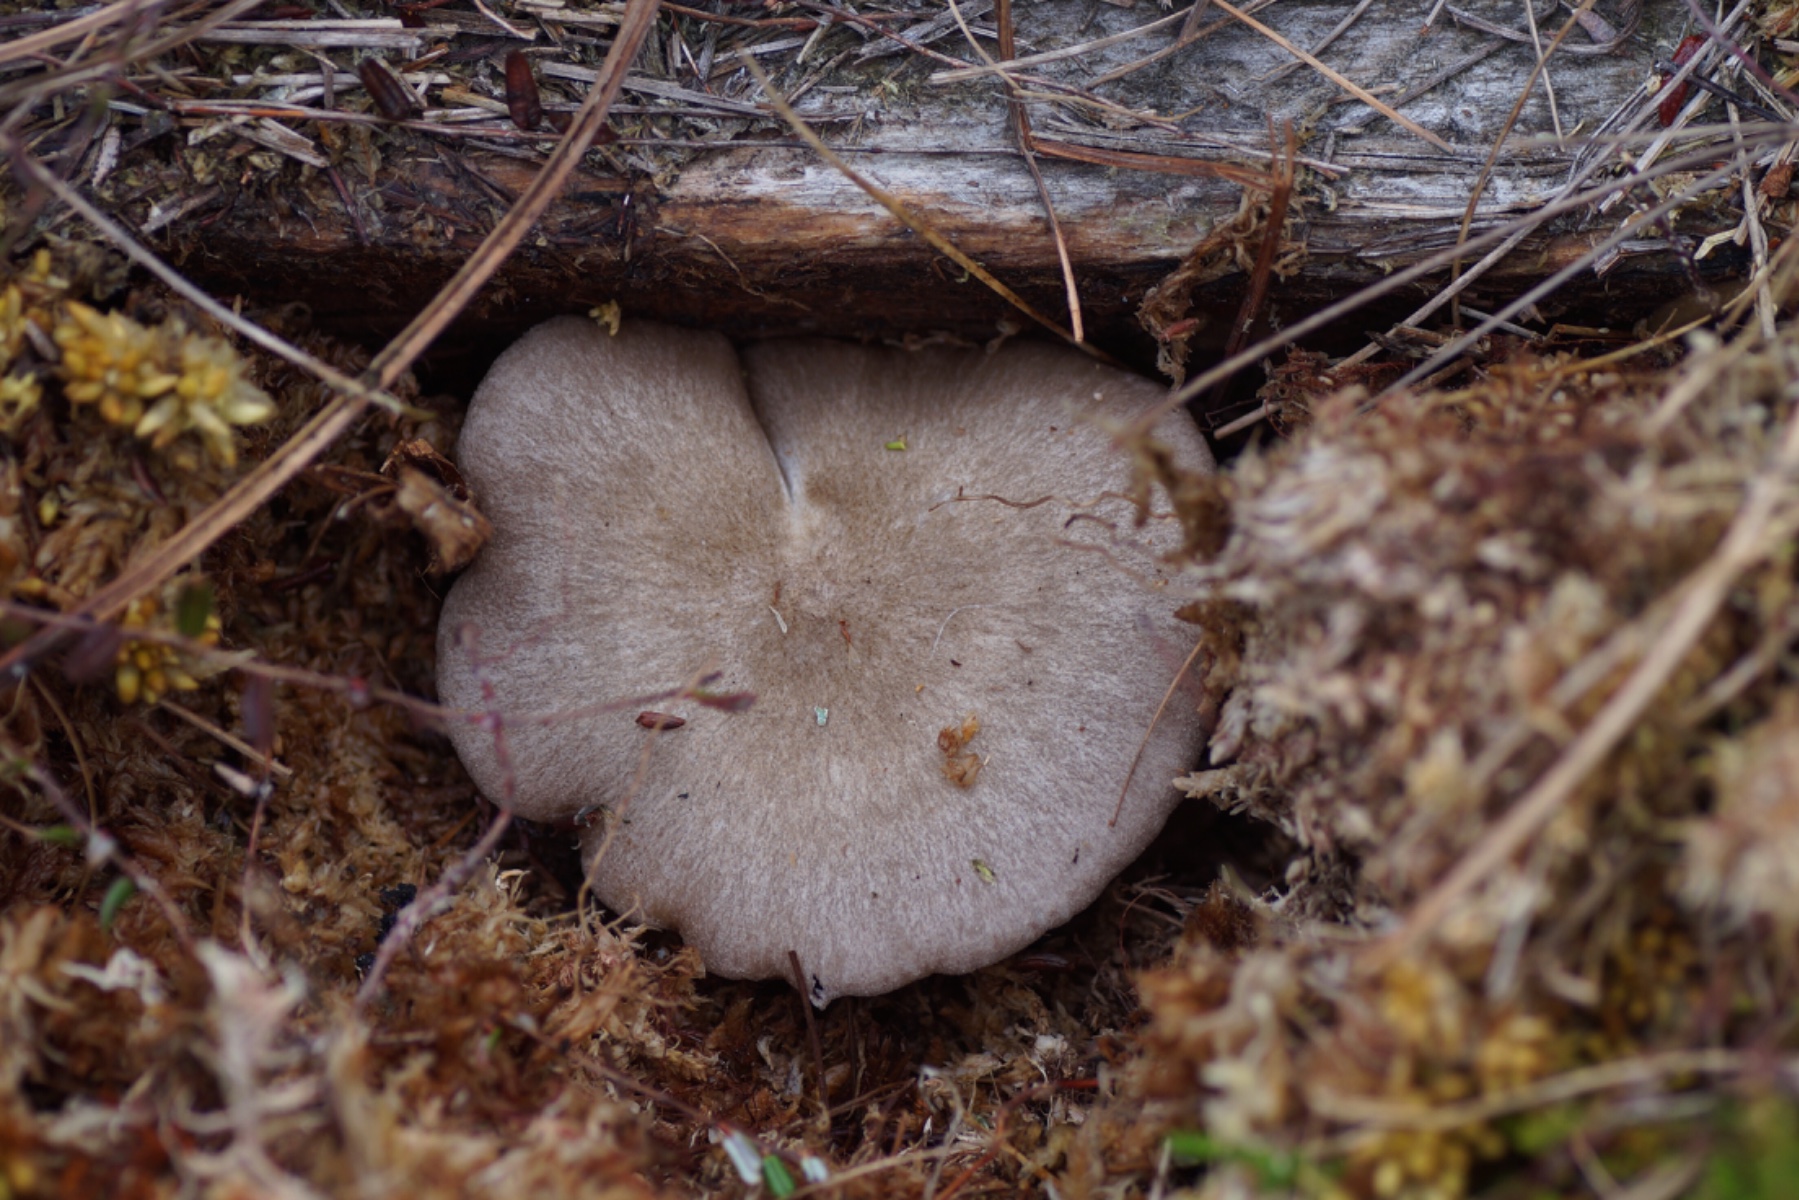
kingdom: Fungi
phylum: Basidiomycota
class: Agaricomycetes
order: Agaricales
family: Entolomataceae
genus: Entoloma
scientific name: Entoloma elodes
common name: mørkægget rødblad
